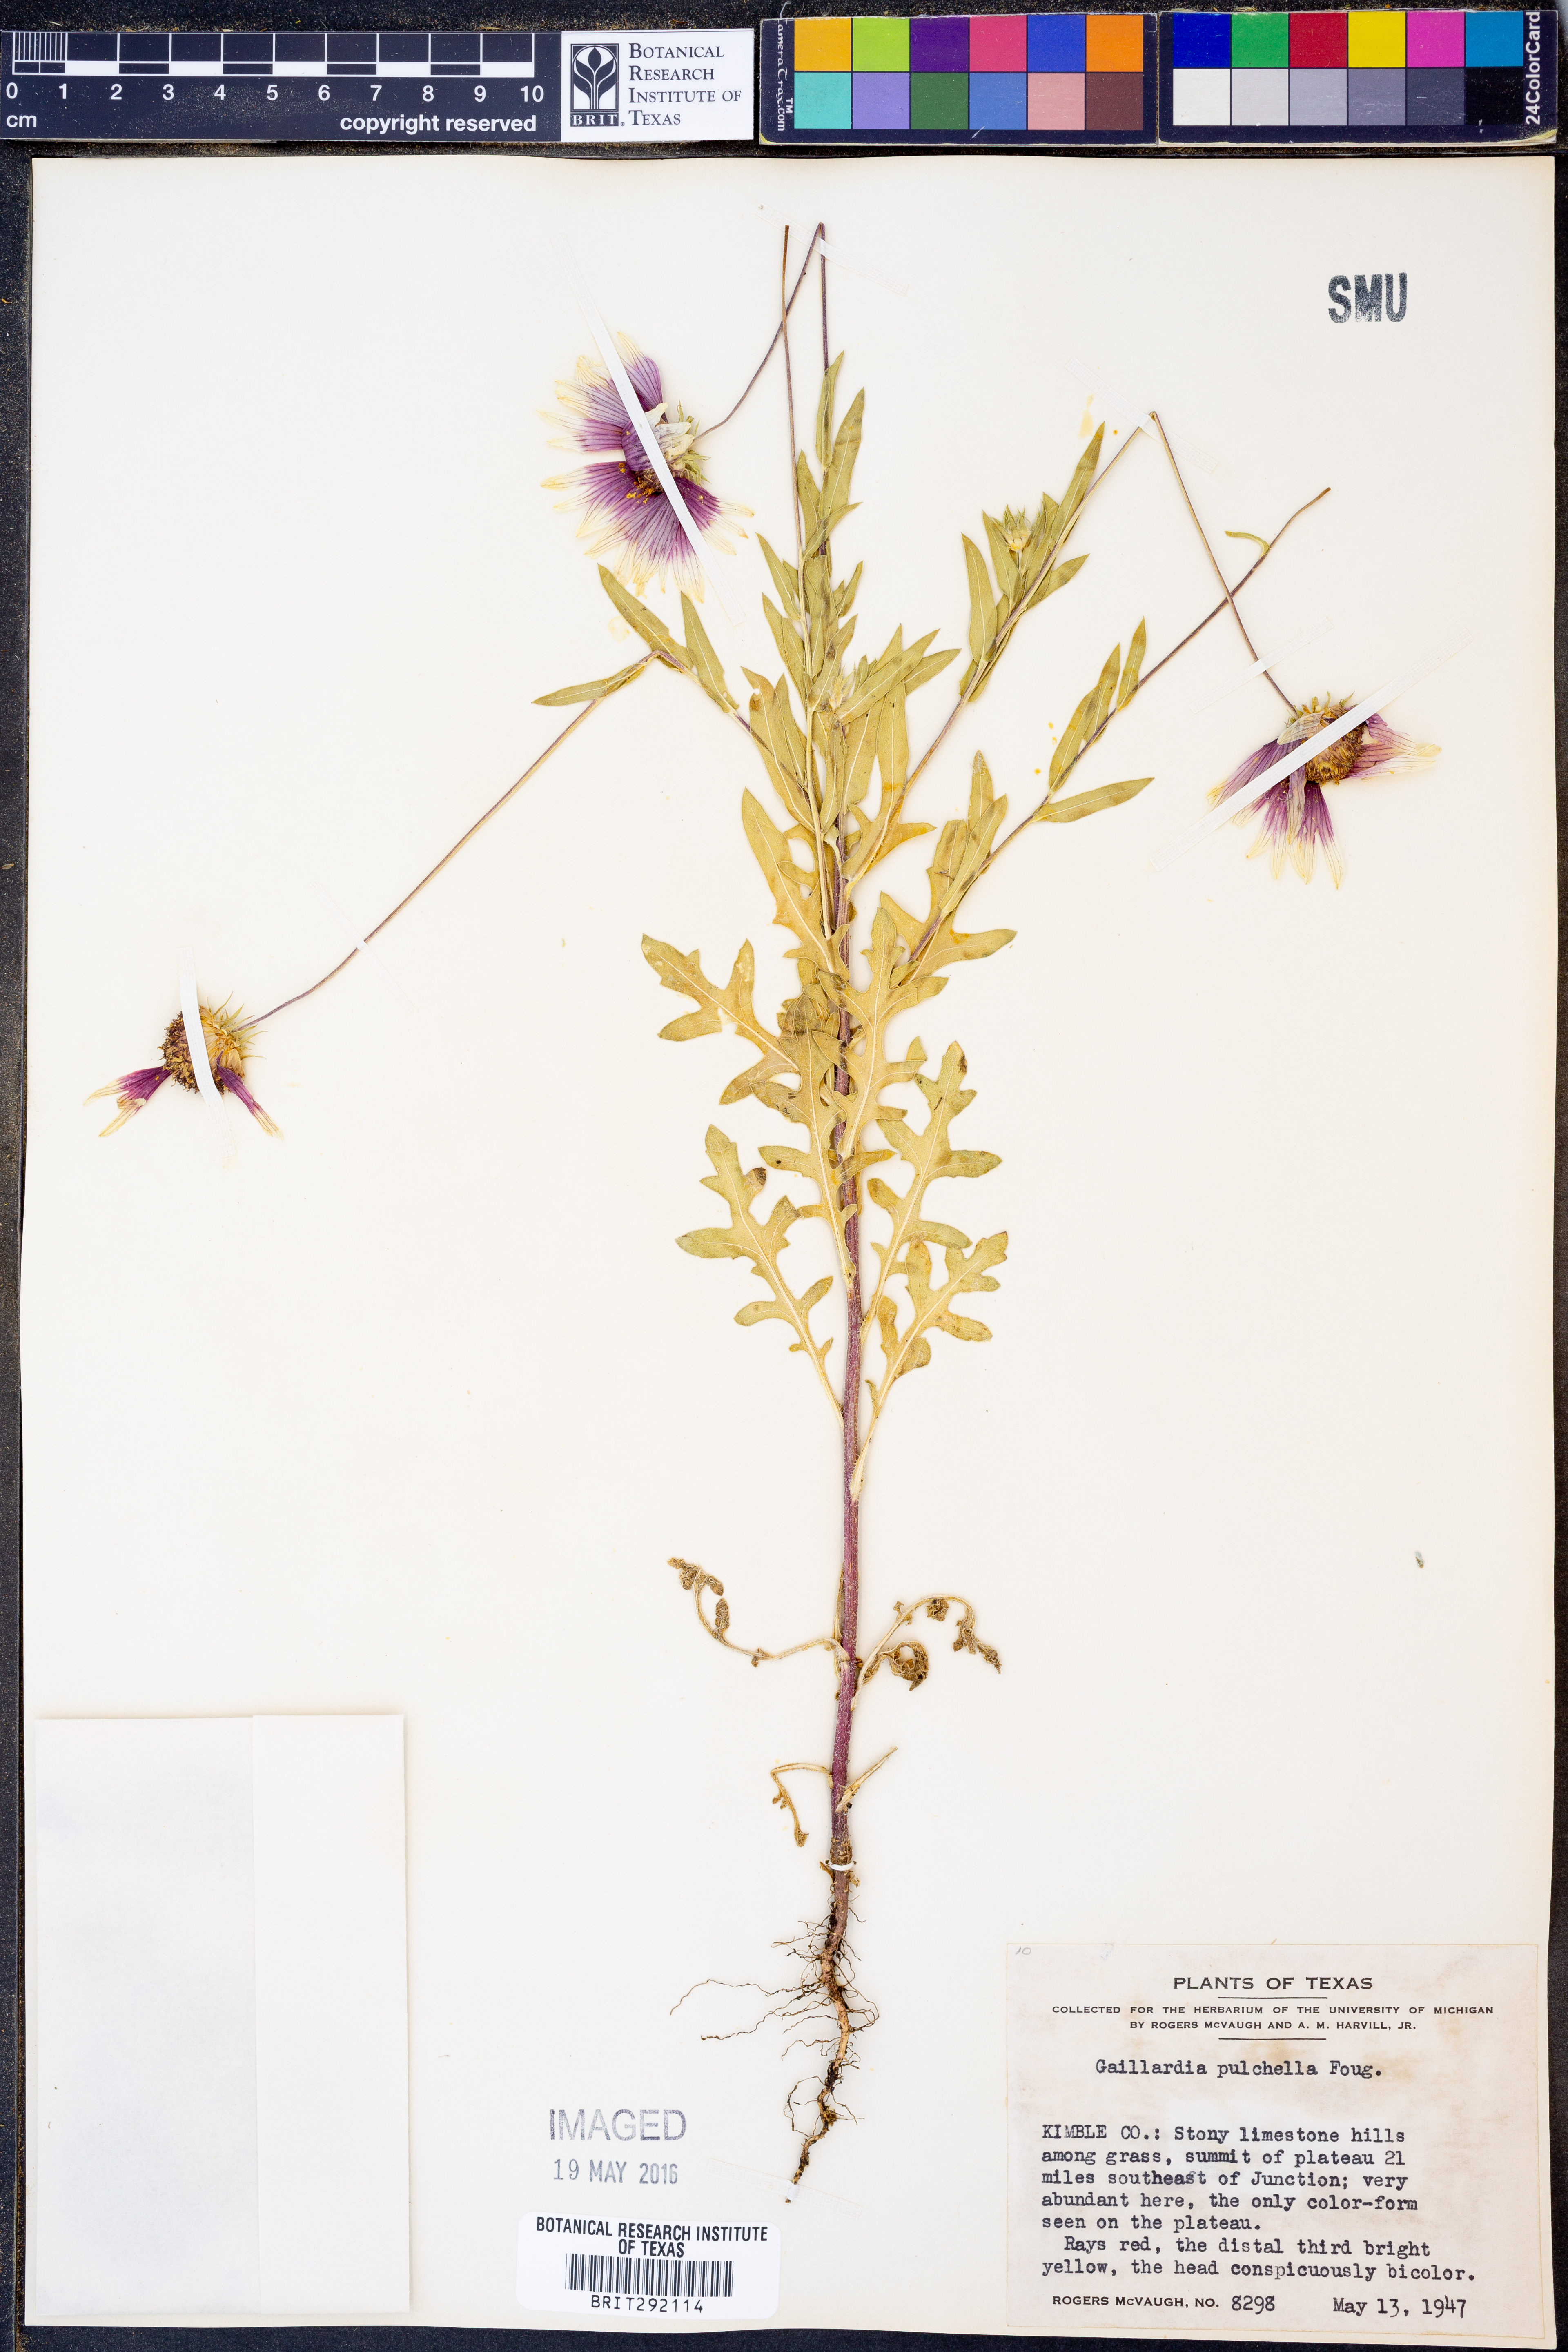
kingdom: Plantae
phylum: Tracheophyta
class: Magnoliopsida
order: Asterales
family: Asteraceae
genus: Gaillardia
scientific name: Gaillardia pulchella
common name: Firewheel
